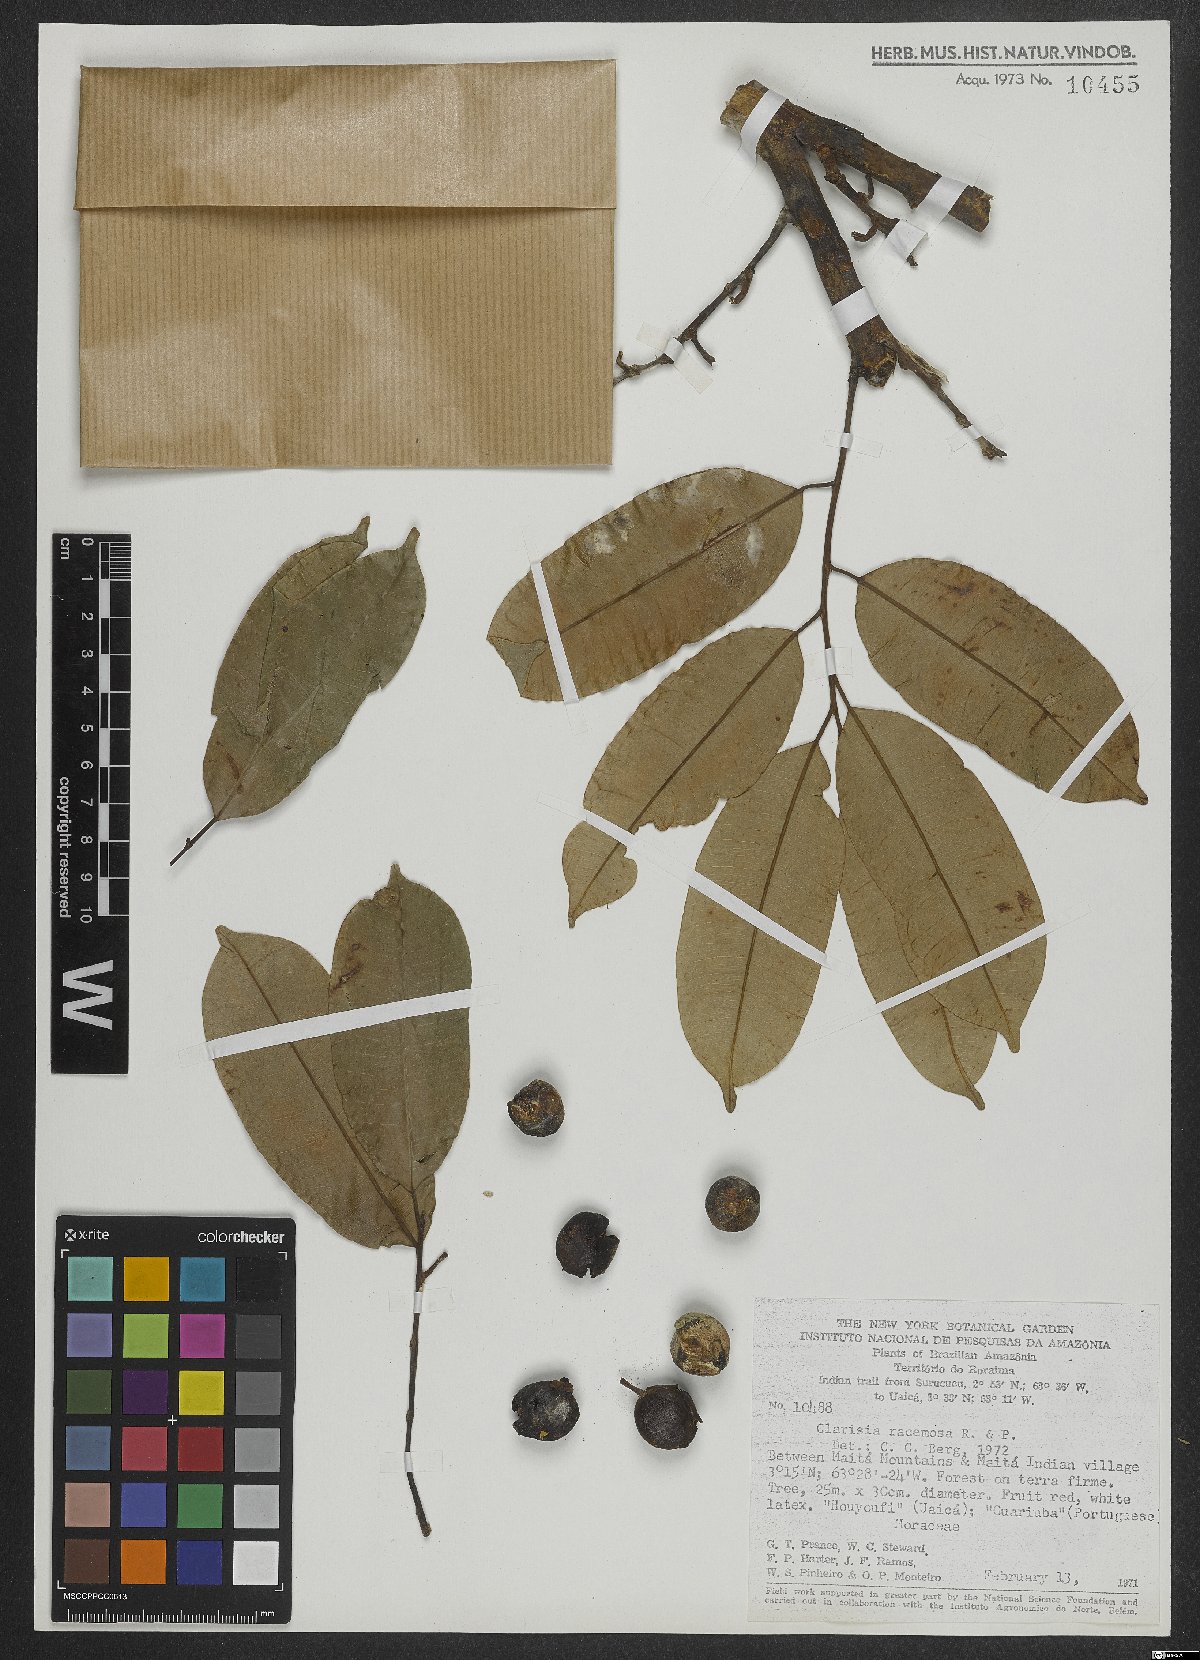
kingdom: Plantae
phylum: Tracheophyta
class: Magnoliopsida
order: Rosales
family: Moraceae
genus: Clarisia
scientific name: Clarisia racemosa
